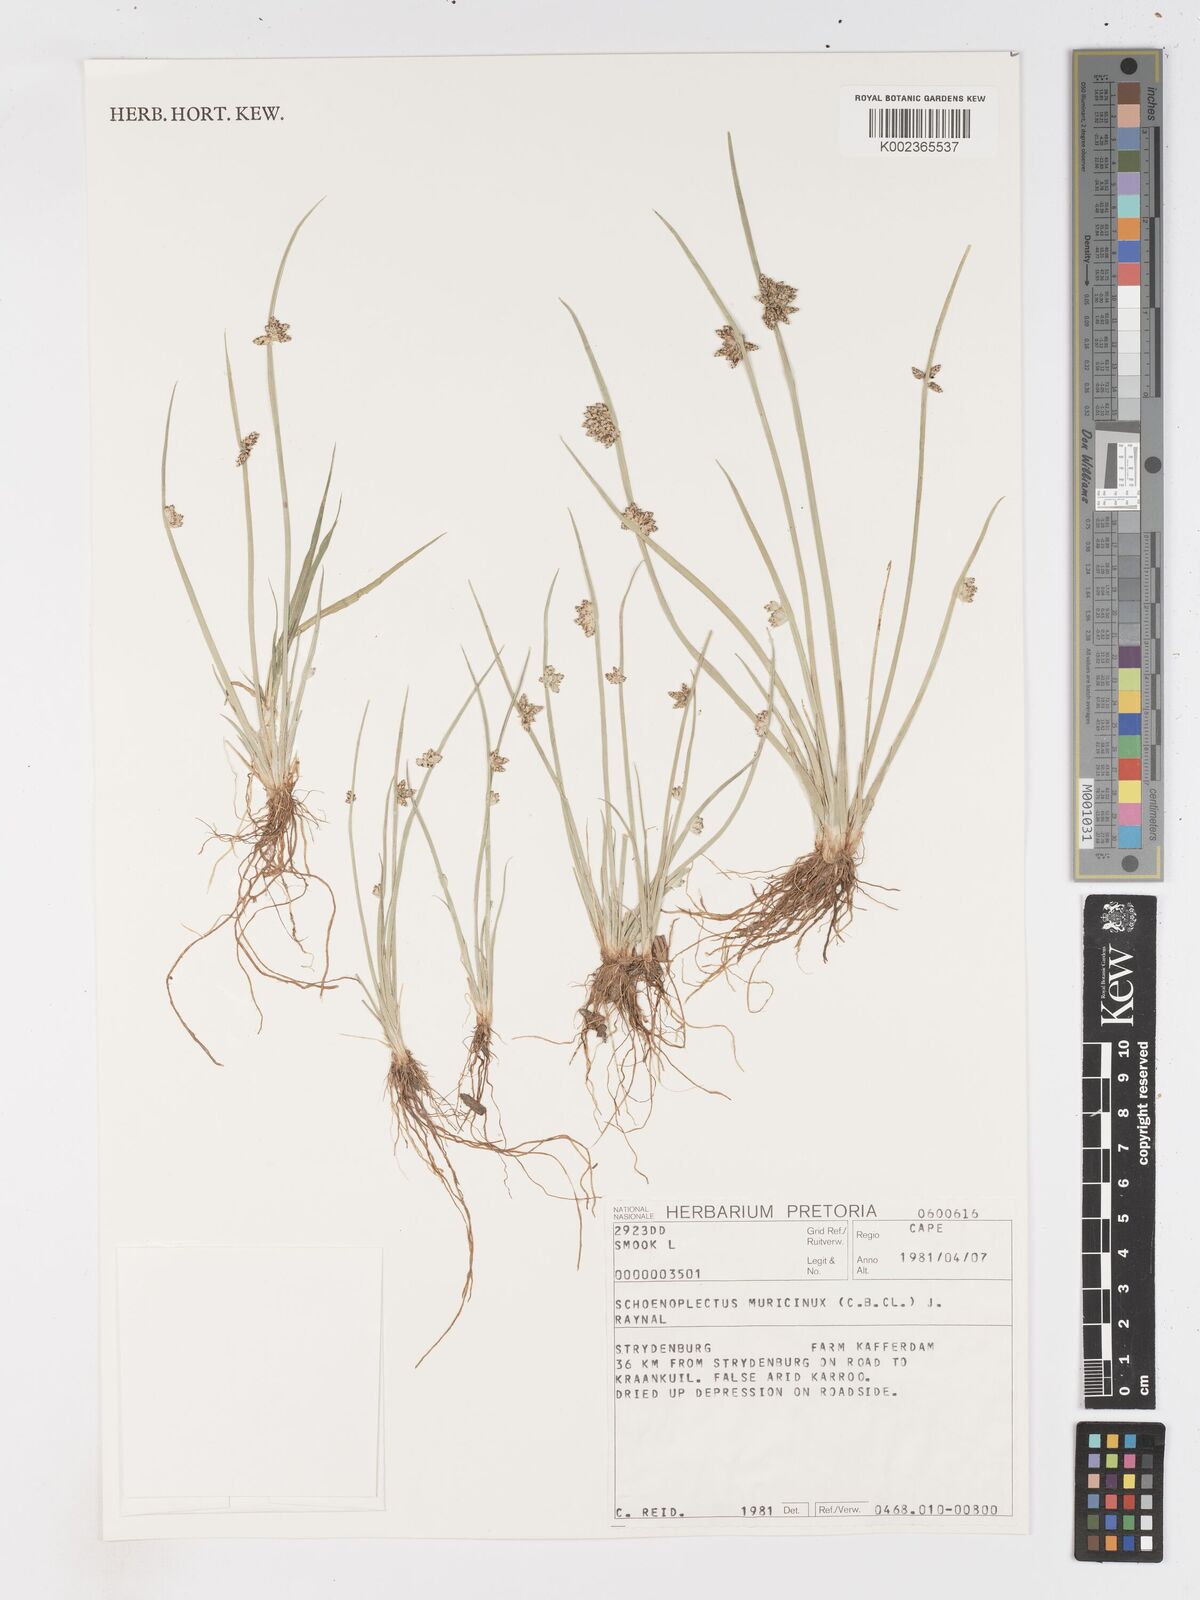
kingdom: Plantae
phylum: Tracheophyta
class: Liliopsida
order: Poales
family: Cyperaceae
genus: Schoenoplectiella
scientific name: Schoenoplectiella muricinux
